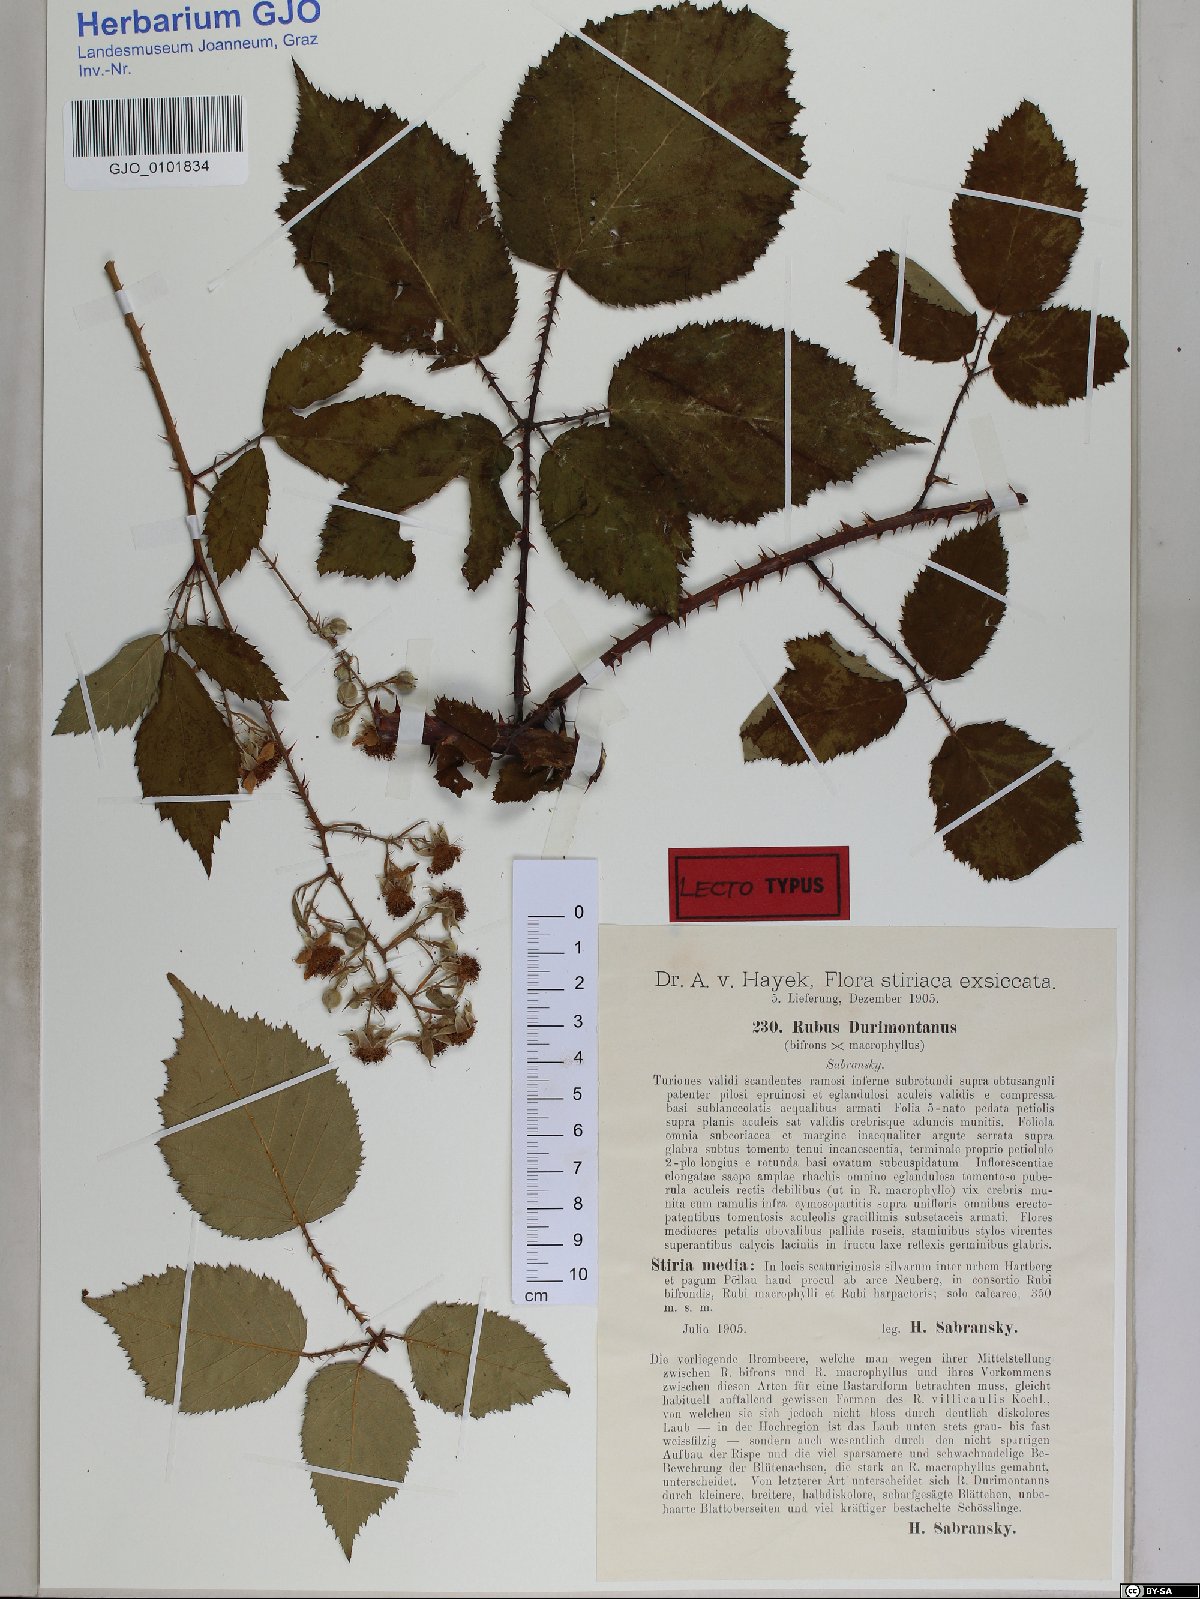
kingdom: Plantae
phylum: Tracheophyta
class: Magnoliopsida
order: Rosales
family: Rosaceae
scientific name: Rosaceae
